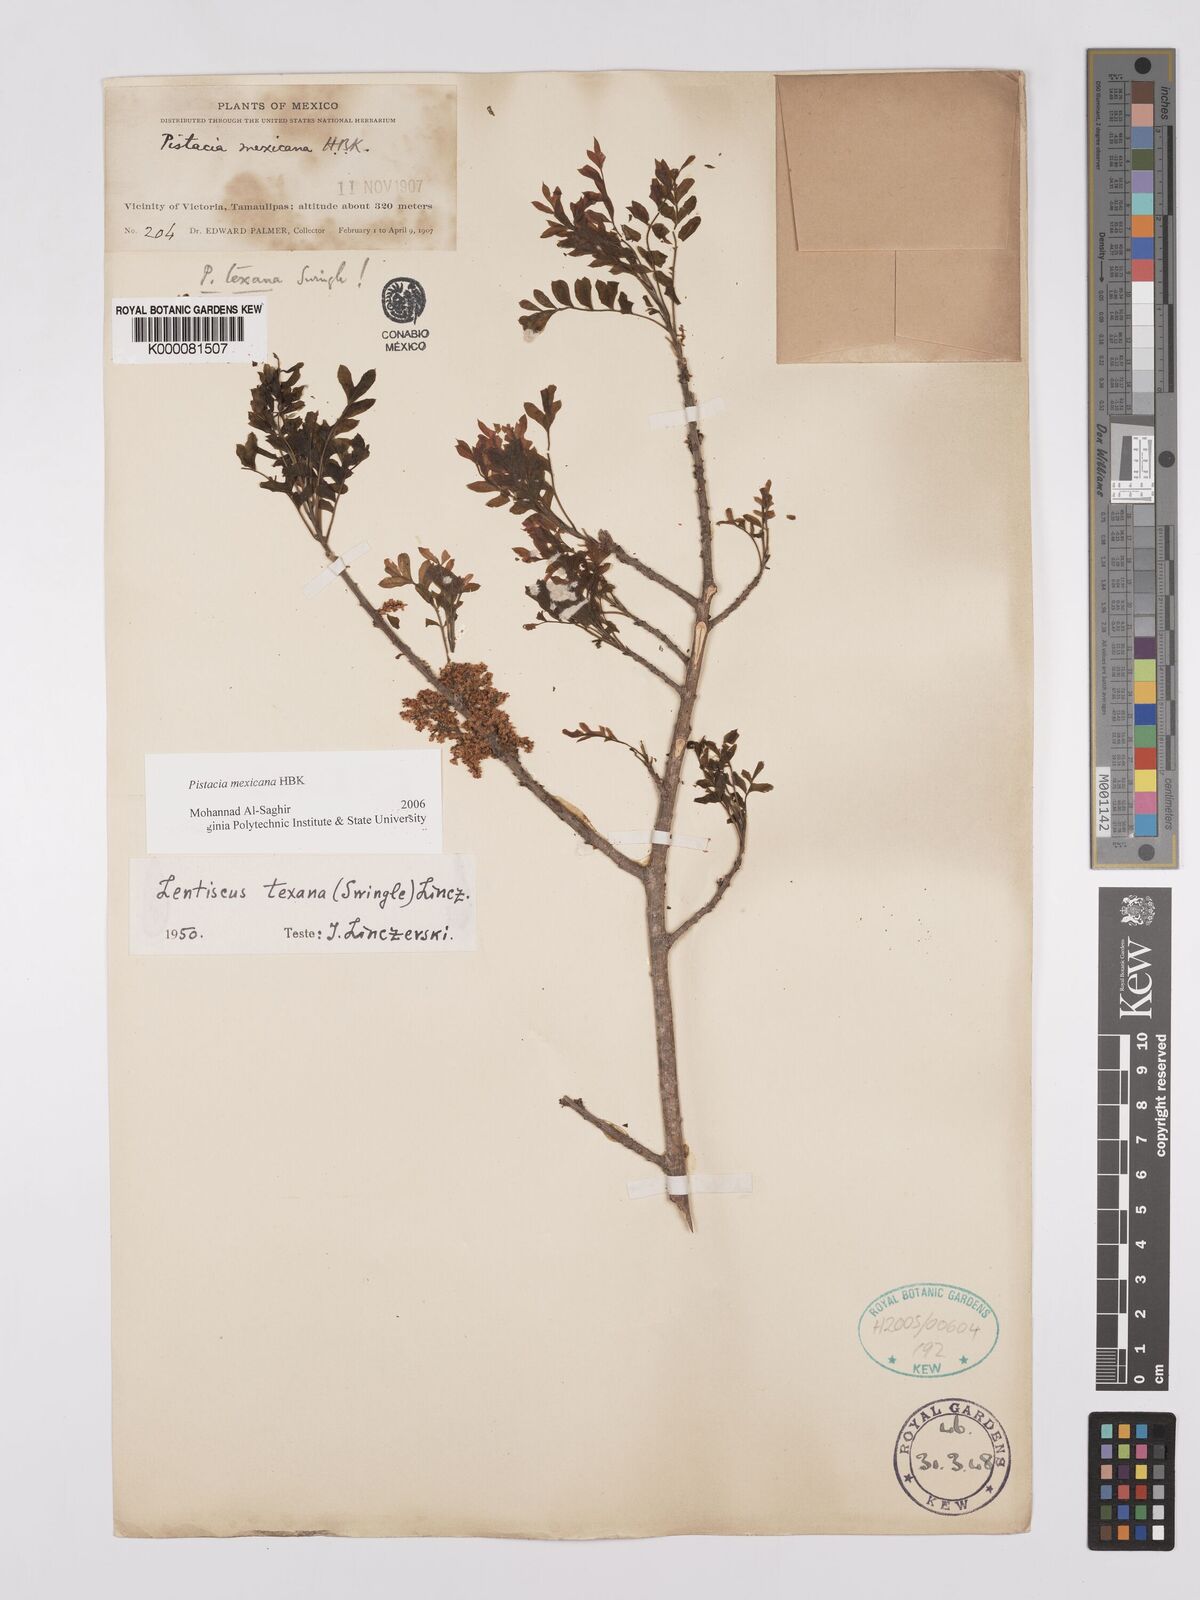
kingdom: Plantae
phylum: Tracheophyta
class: Magnoliopsida
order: Sapindales
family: Anacardiaceae
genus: Pistacia
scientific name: Pistacia
